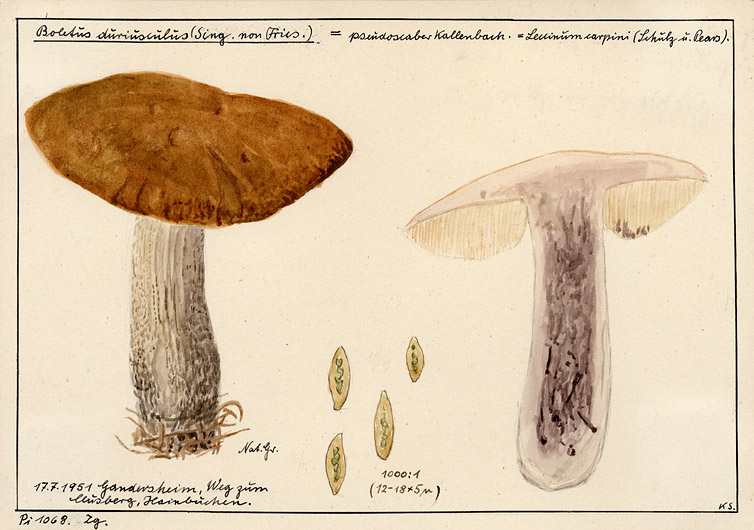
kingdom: Fungi
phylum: Basidiomycota
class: Agaricomycetes
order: Boletales
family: Boletaceae
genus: Leccinellum
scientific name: Leccinellum pseudoscabrum
